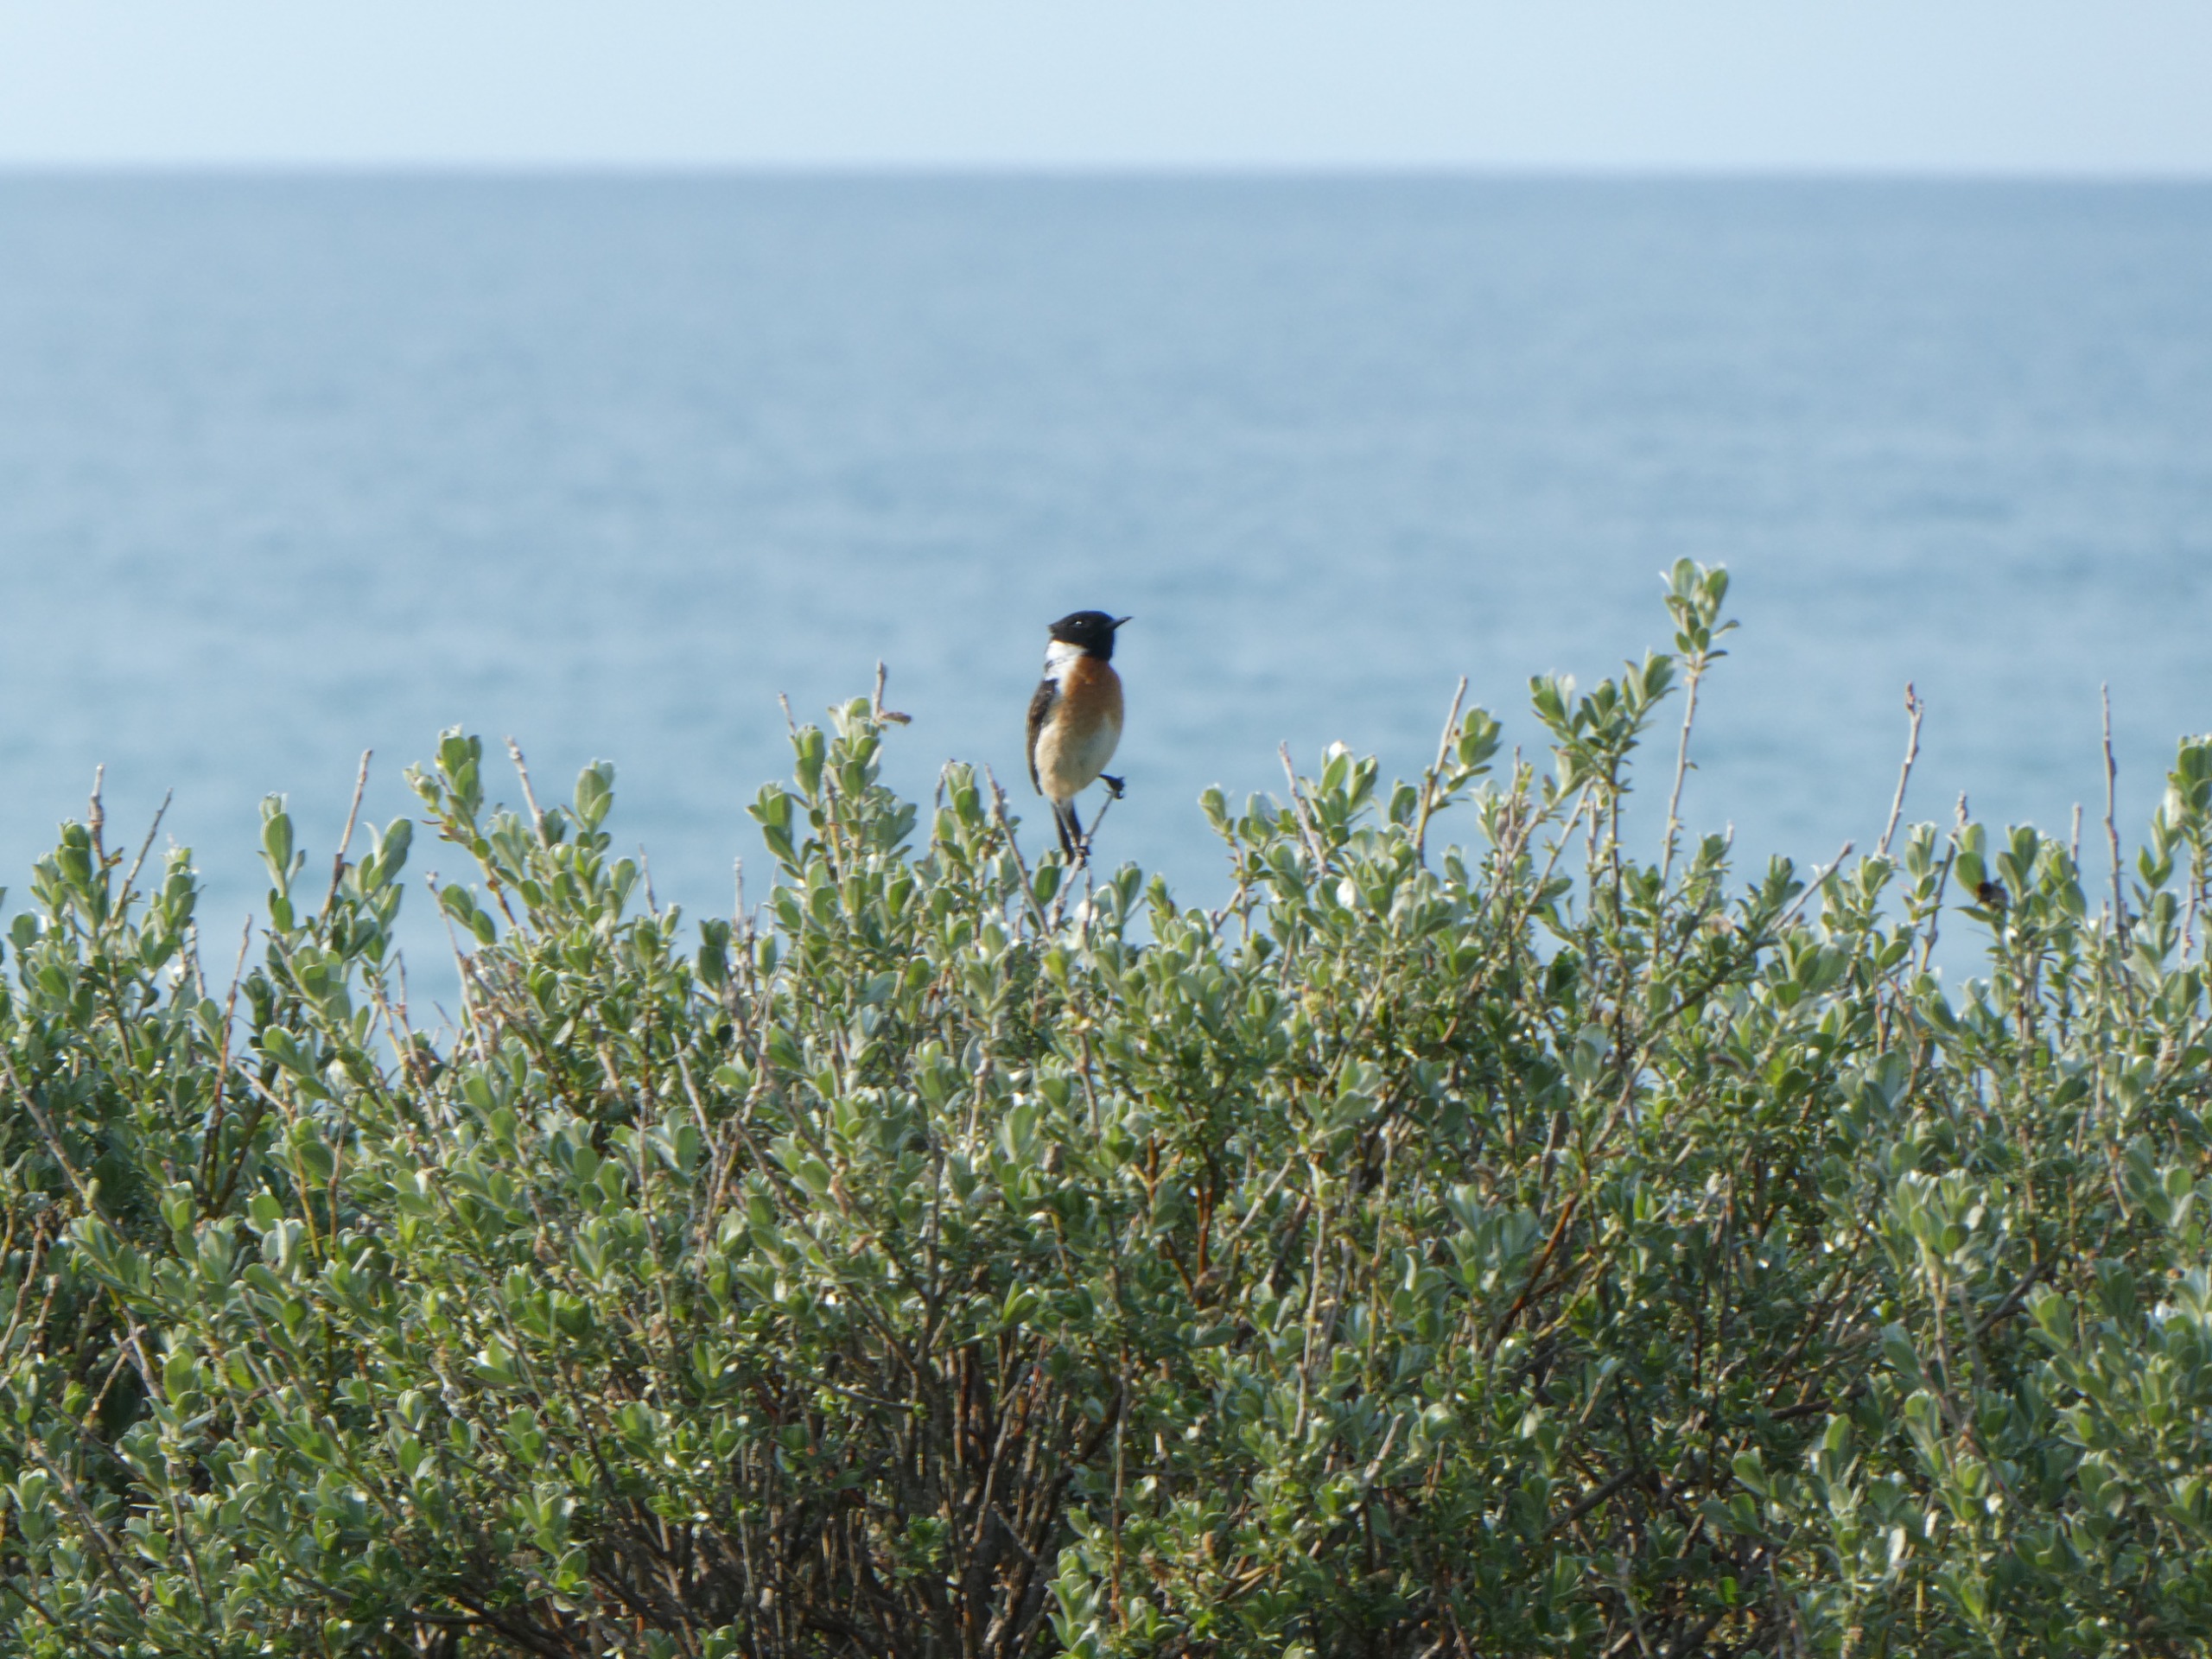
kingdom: Animalia
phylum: Chordata
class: Aves
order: Passeriformes
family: Muscicapidae
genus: Saxicola
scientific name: Saxicola rubicola
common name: Sortstrubet bynkefugl
